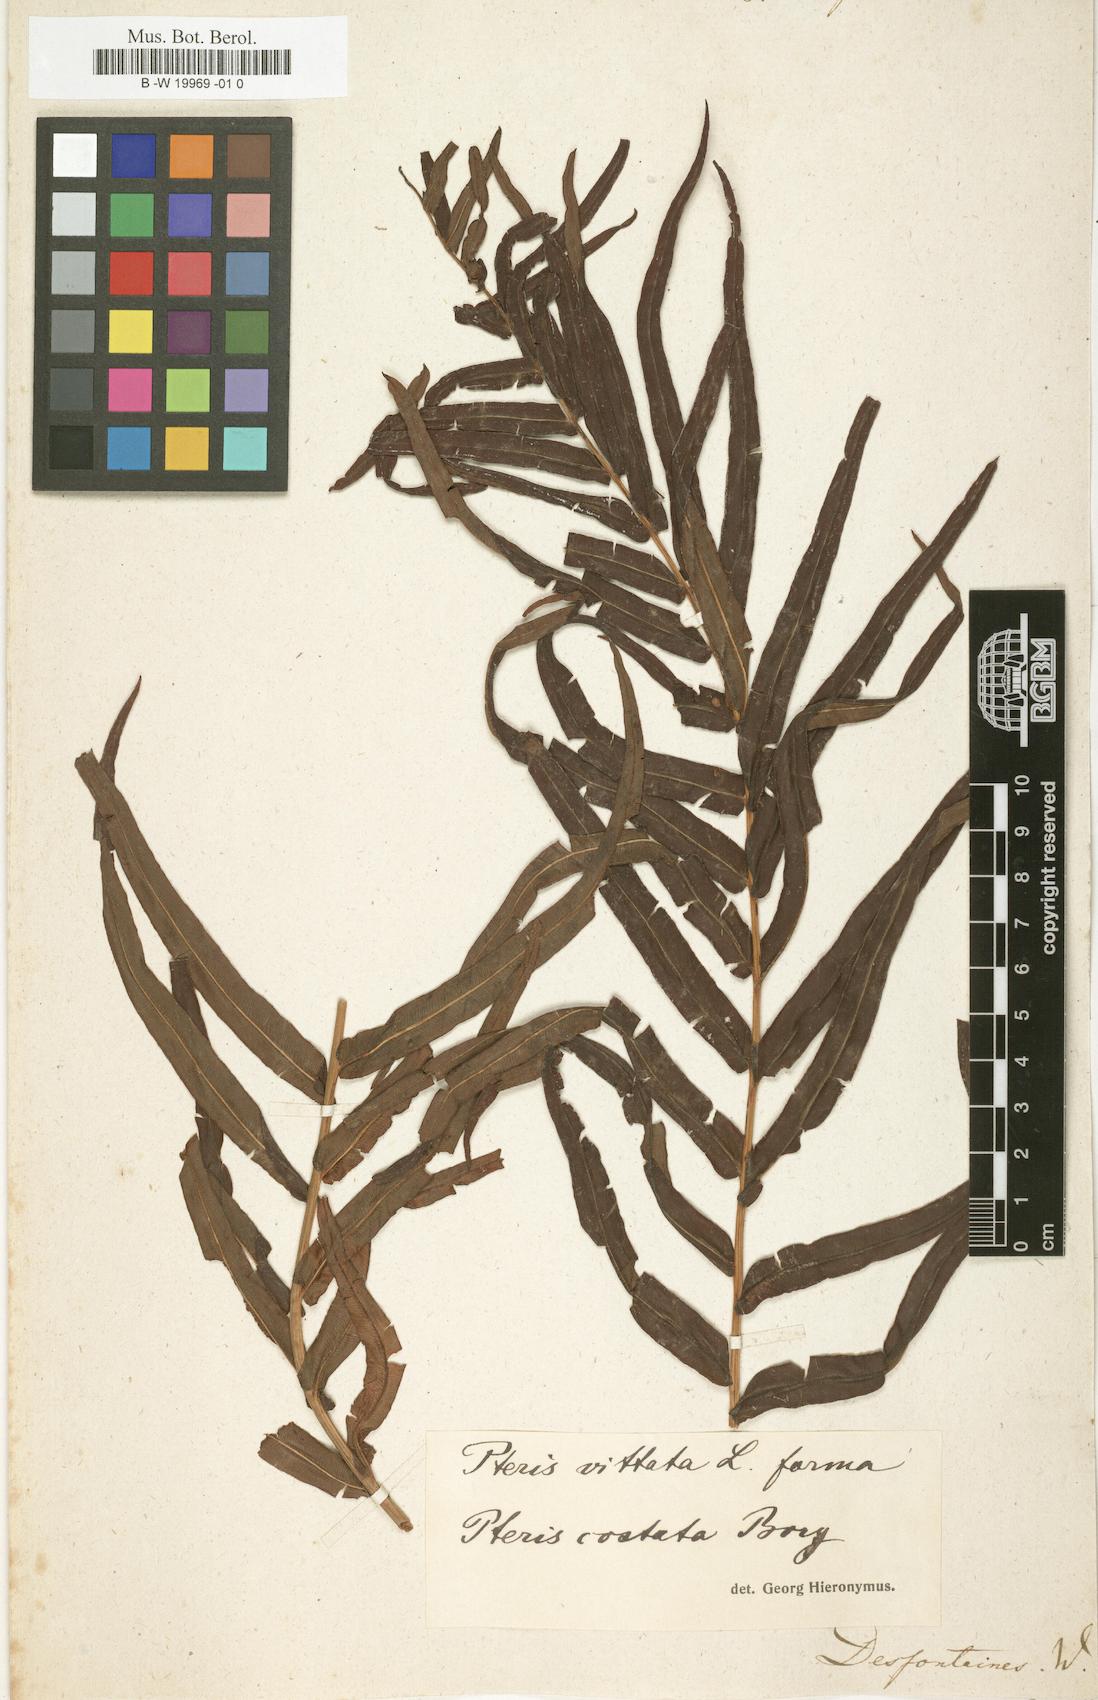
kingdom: Plantae
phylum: Tracheophyta
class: Polypodiopsida
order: Polypodiales
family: Pteridaceae
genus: Pteris
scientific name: Pteris vittata
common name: Ladder brake
